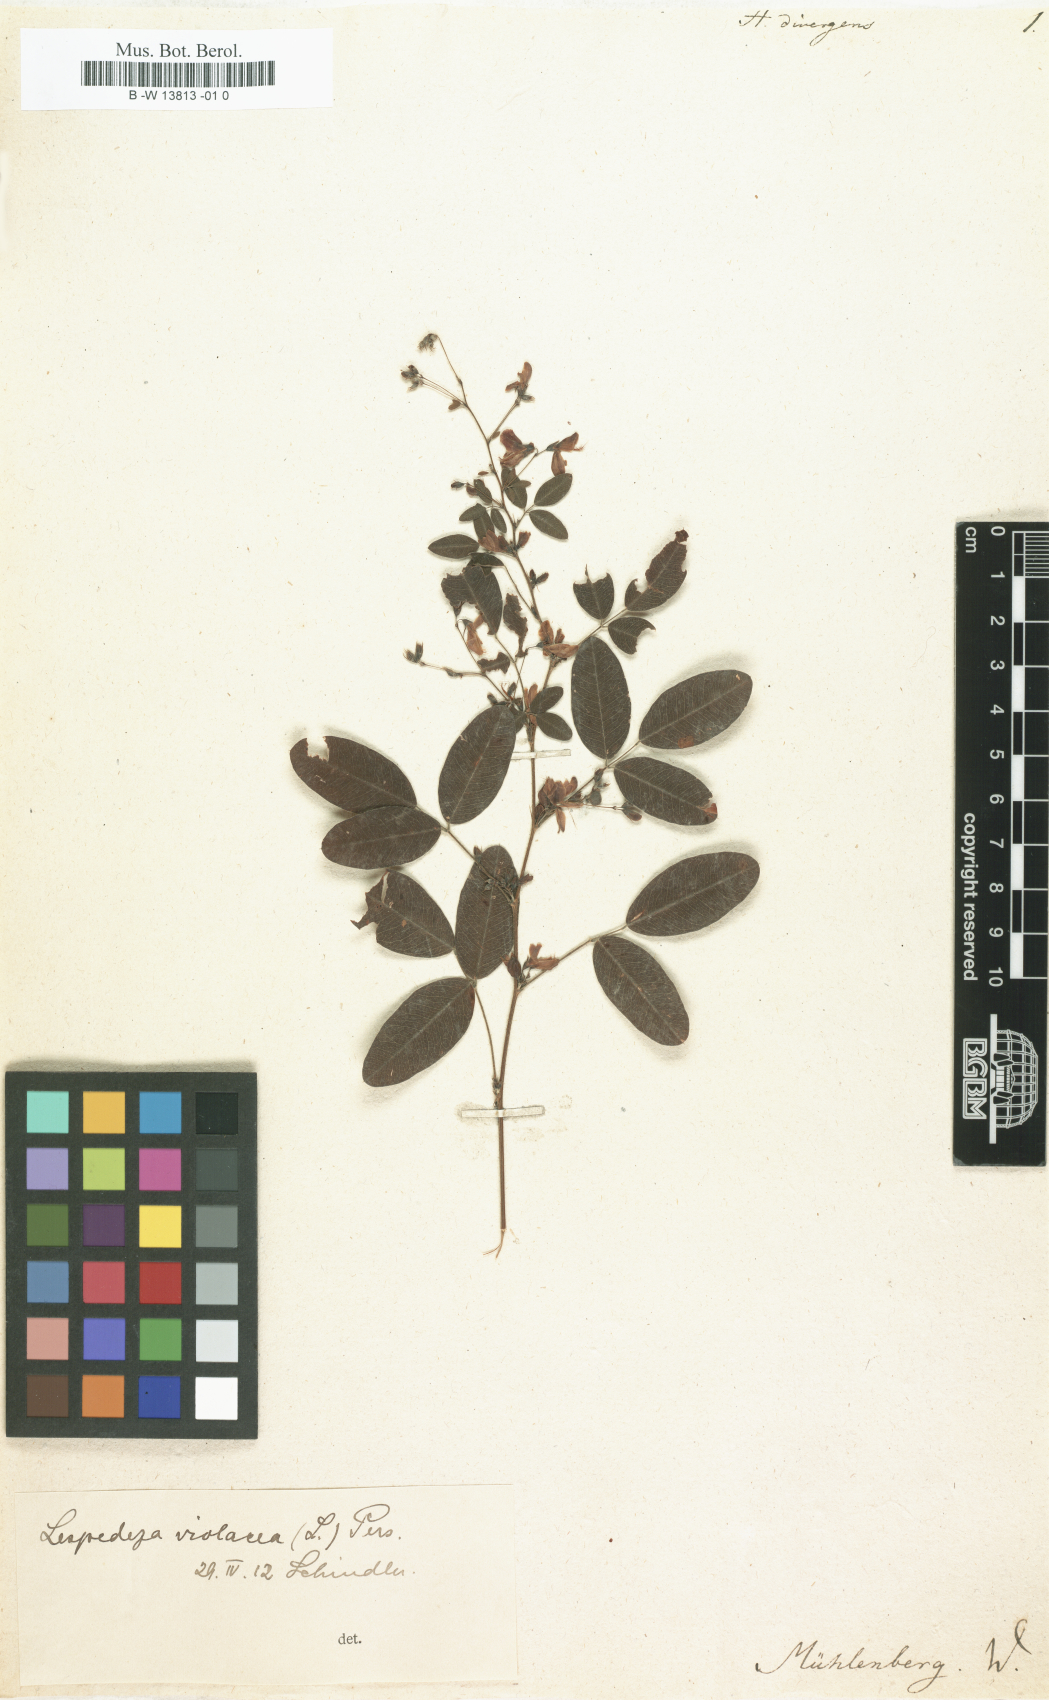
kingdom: Plantae
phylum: Tracheophyta
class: Magnoliopsida
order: Fabales
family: Fabaceae
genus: Lespedeza
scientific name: Lespedeza violacea
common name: Wand bush-clover
